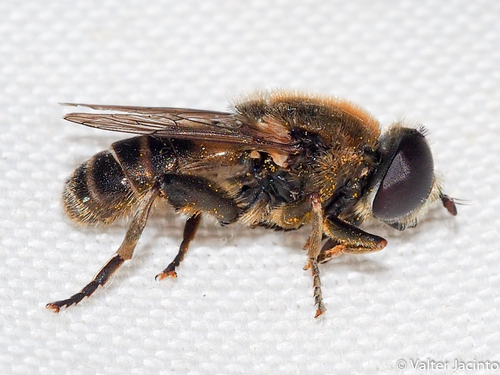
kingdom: Animalia
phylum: Arthropoda
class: Insecta
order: Diptera
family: Syrphidae
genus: Merodon
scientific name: Merodon
